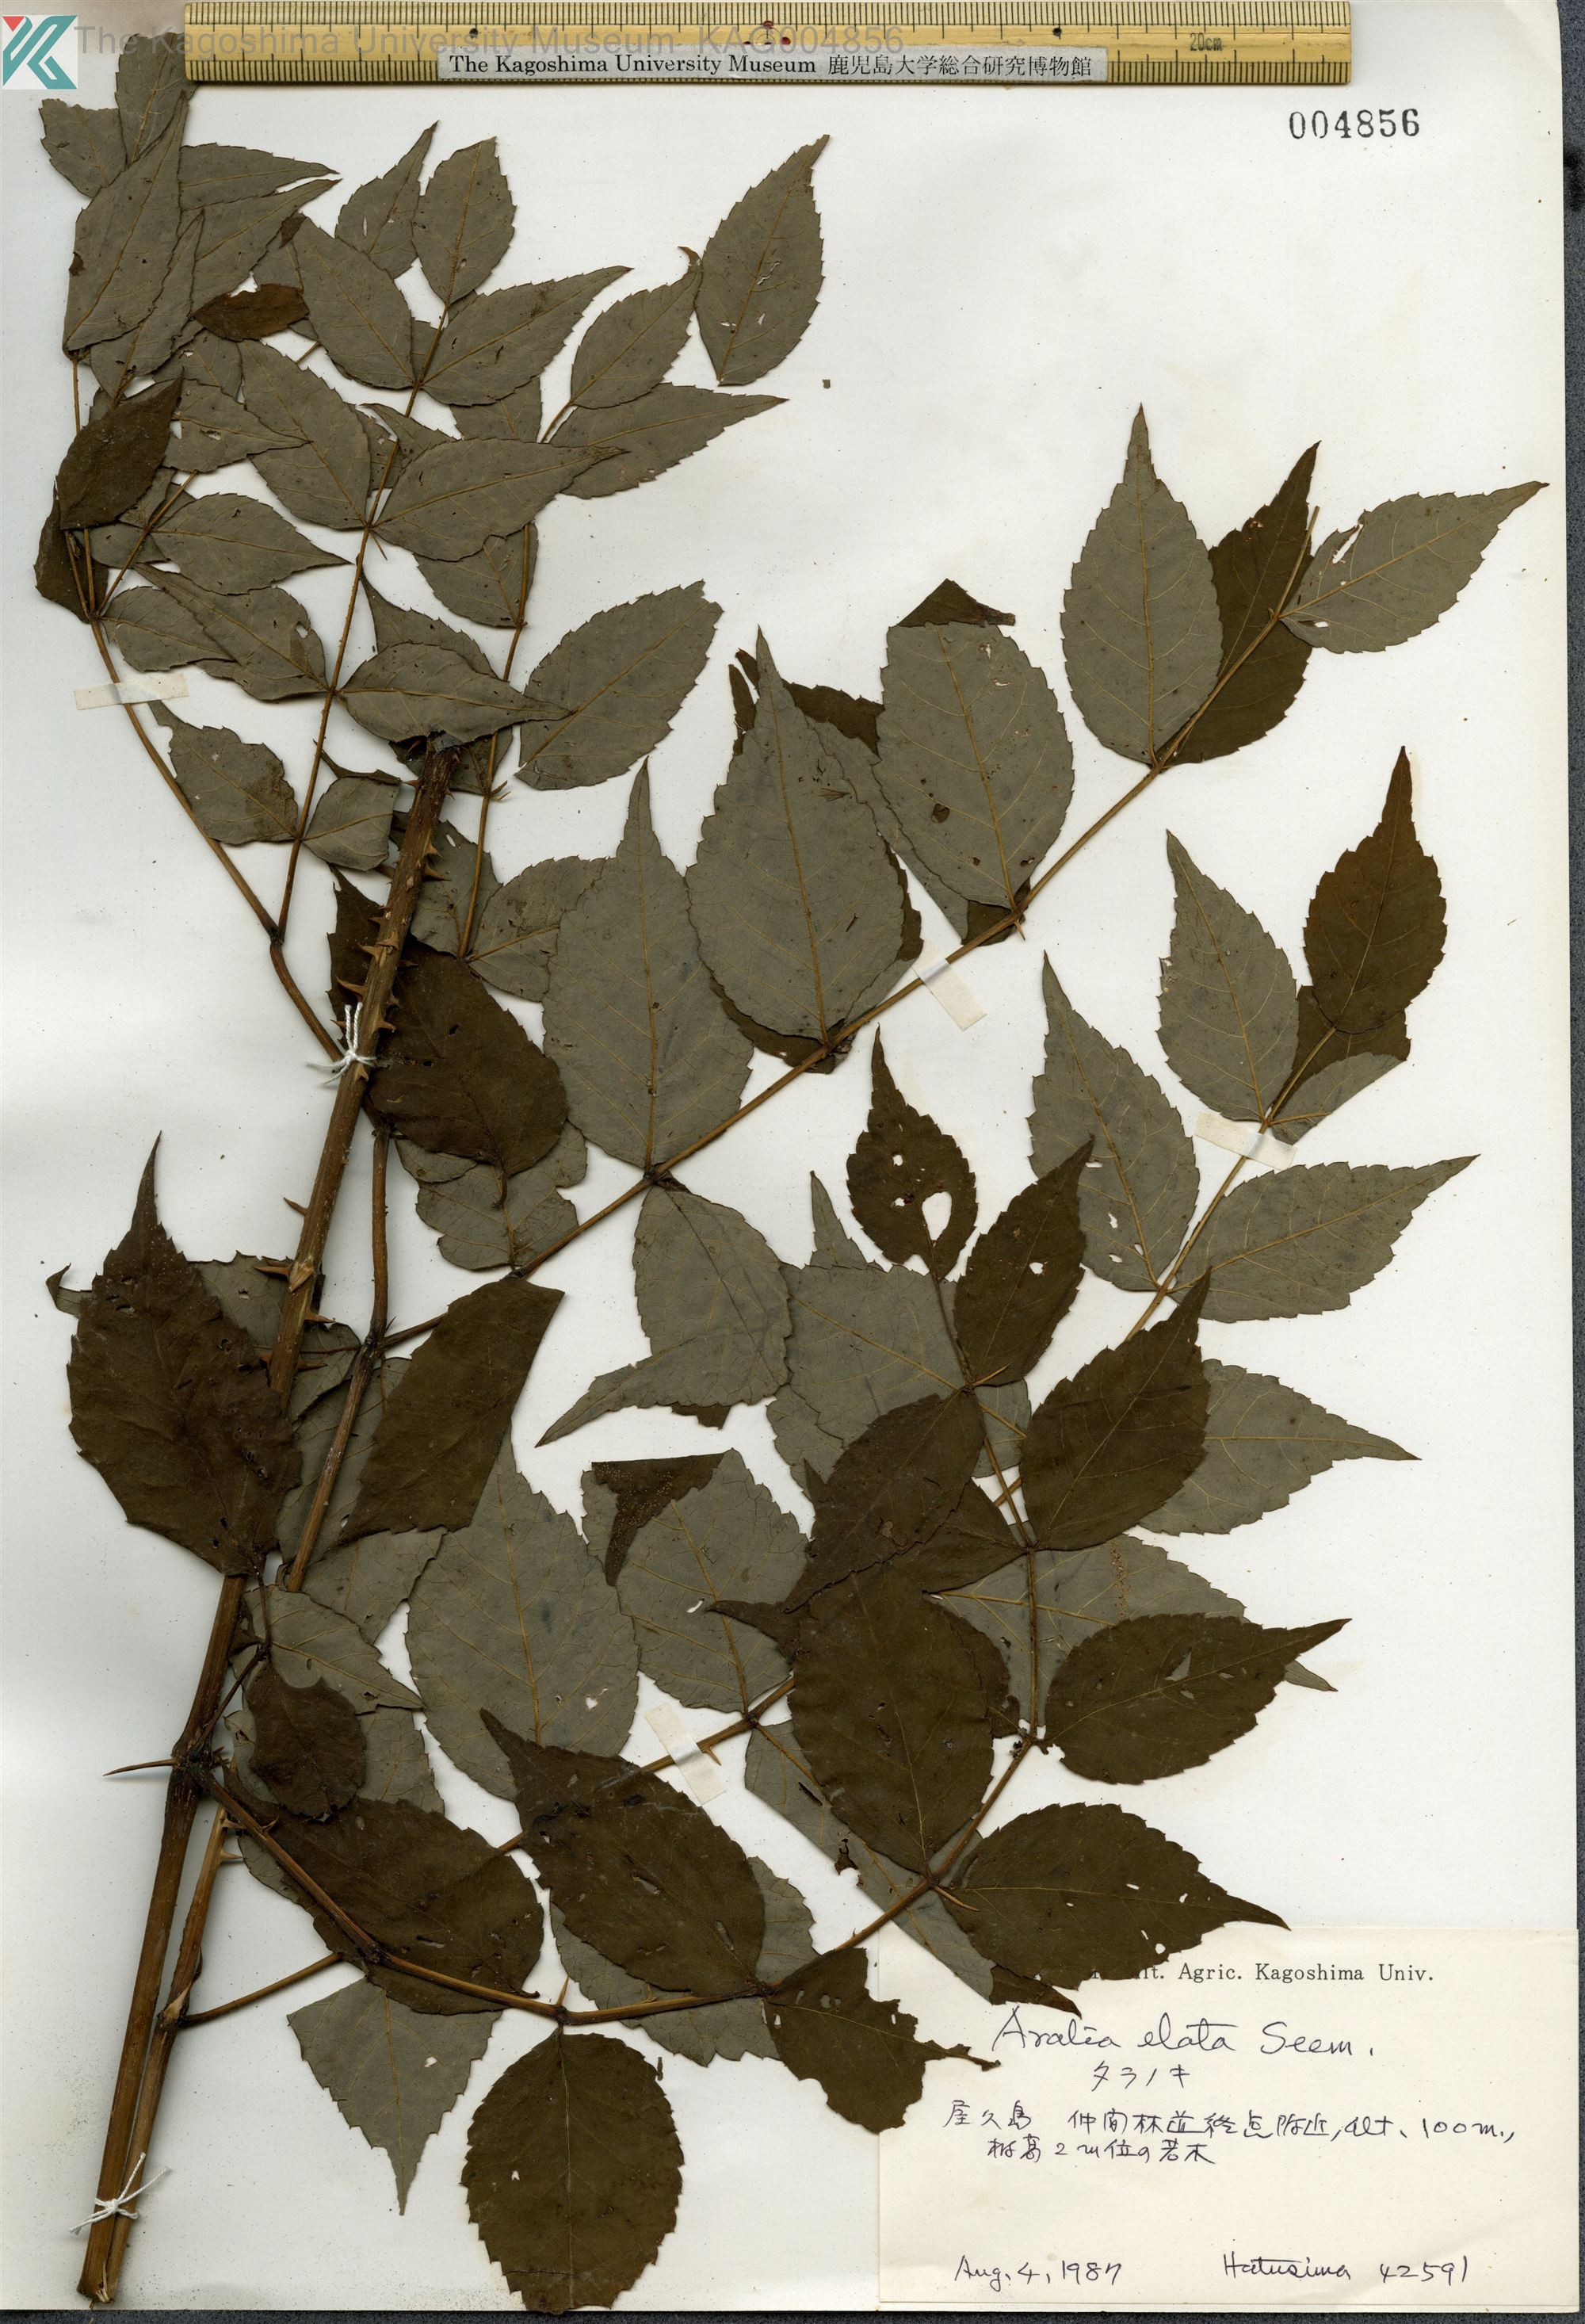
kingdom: Plantae
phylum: Tracheophyta
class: Magnoliopsida
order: Apiales
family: Araliaceae
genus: Aralia
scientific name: Aralia elata
